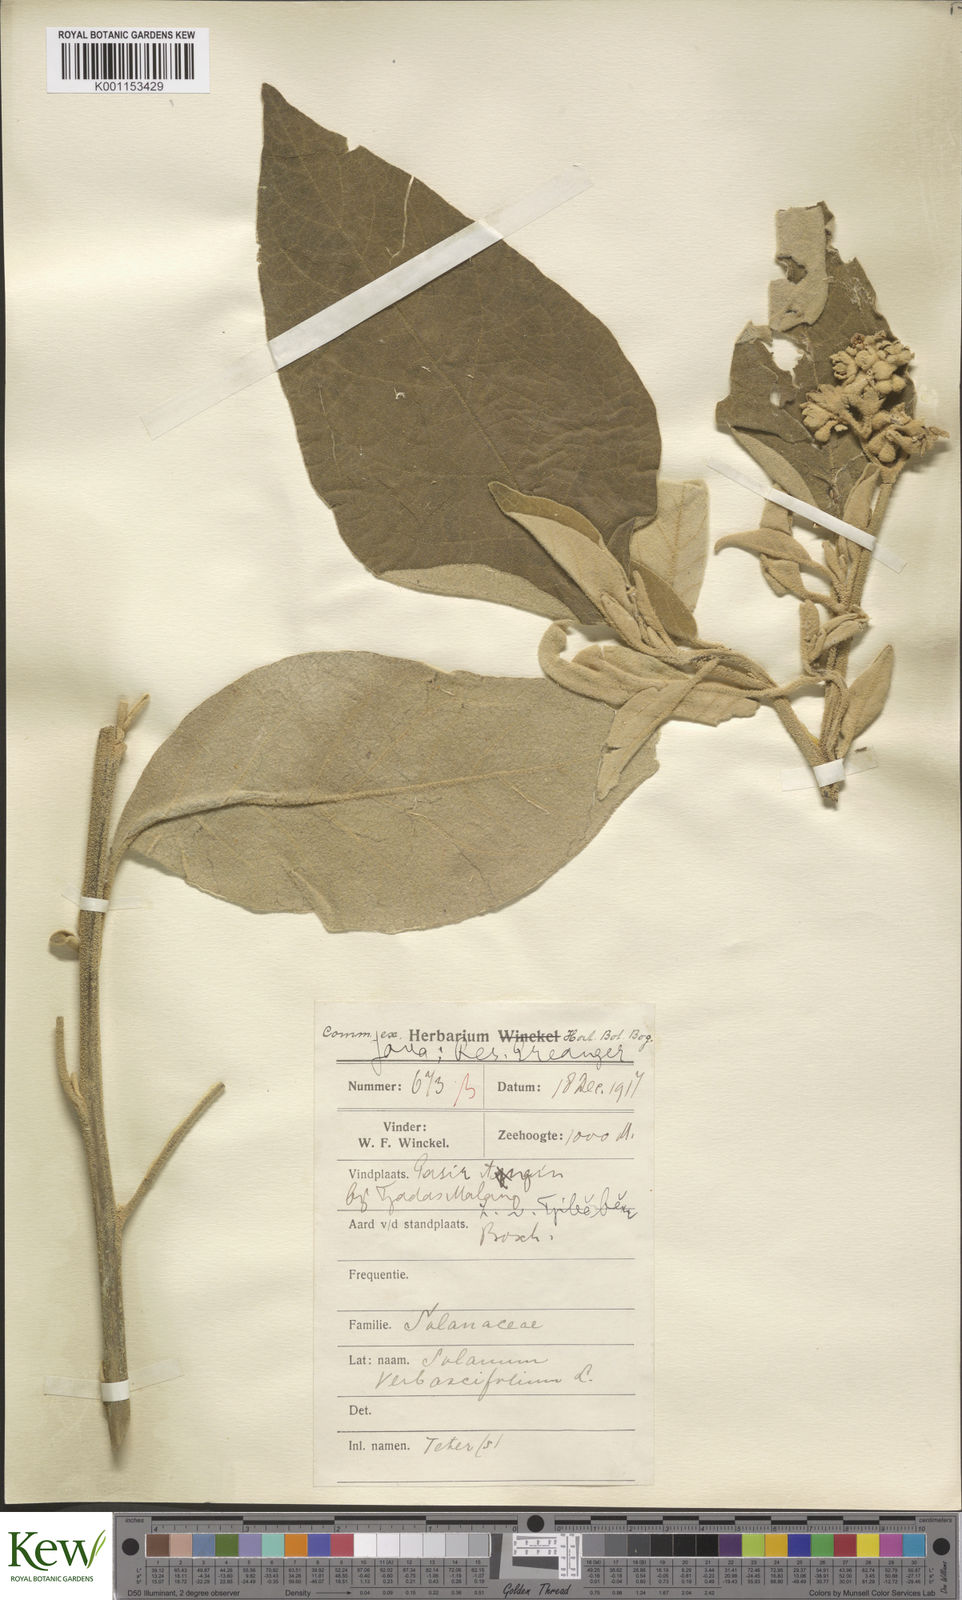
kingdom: Plantae
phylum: Tracheophyta
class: Magnoliopsida
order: Solanales
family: Solanaceae
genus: Solanum
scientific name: Solanum donianum
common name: Mullein nightshade
